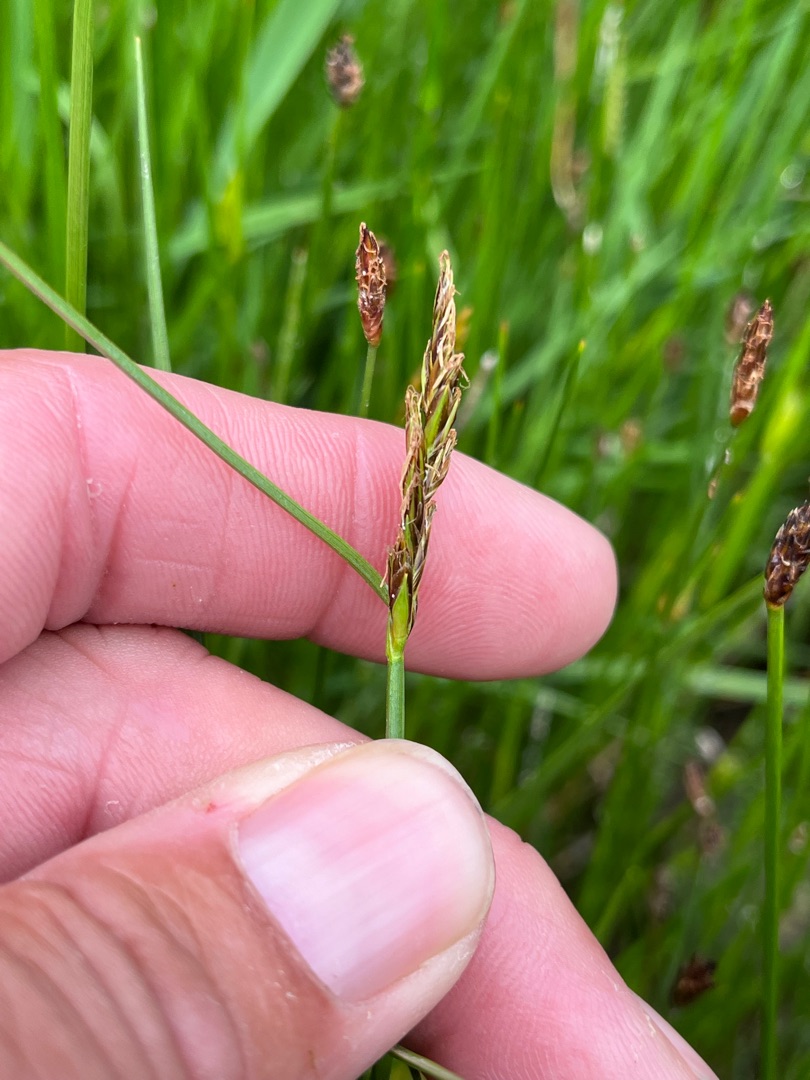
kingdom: Plantae
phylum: Tracheophyta
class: Liliopsida
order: Poales
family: Cyperaceae
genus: Blysmus
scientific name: Blysmus compressus
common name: Fladtrykt kogleaks
